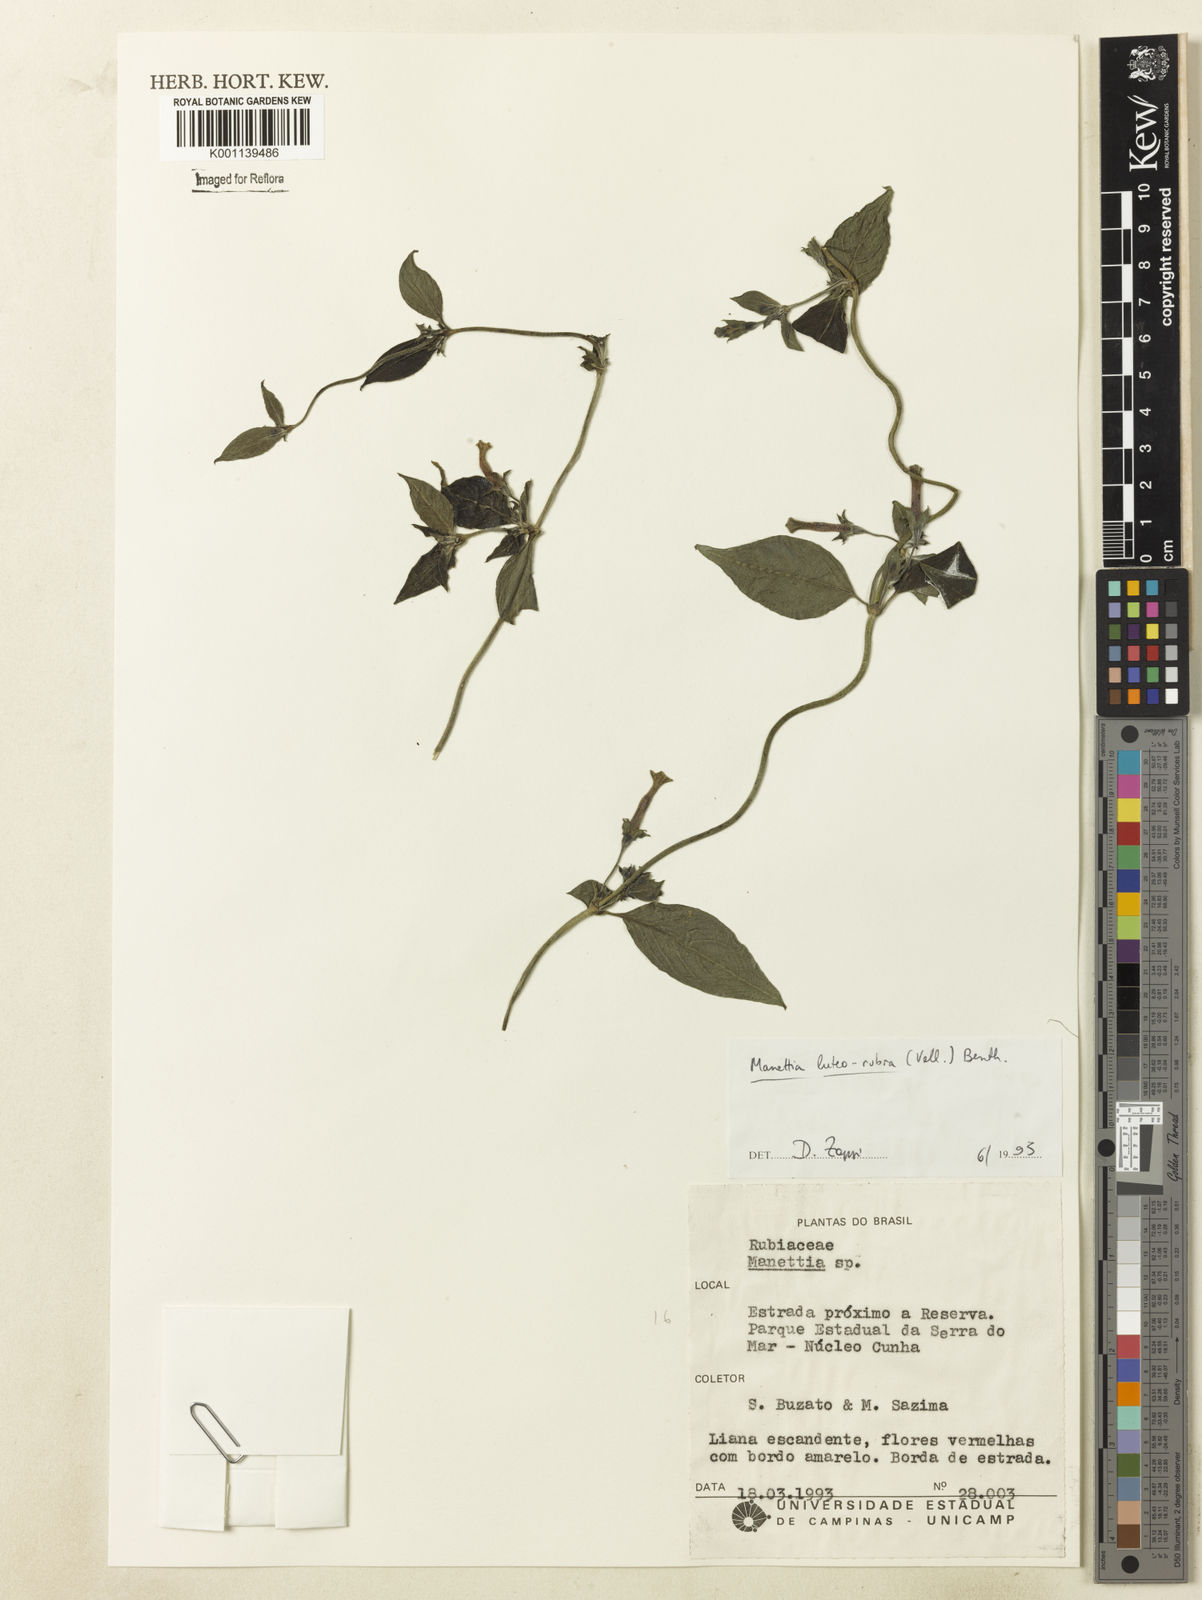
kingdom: Plantae
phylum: Tracheophyta
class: Magnoliopsida
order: Gentianales
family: Rubiaceae
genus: Manettia
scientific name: Manettia luteorubra
